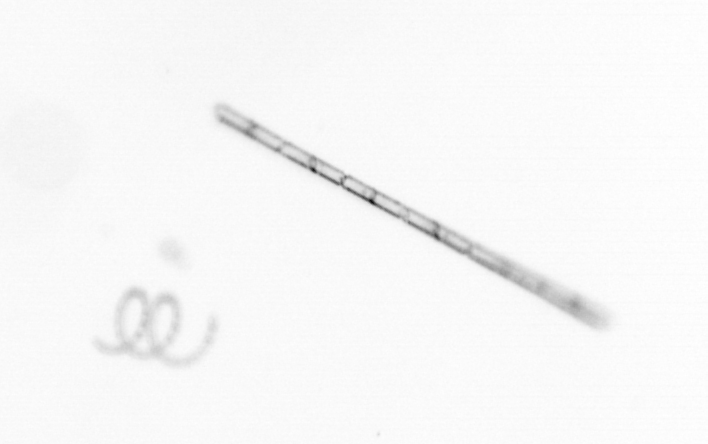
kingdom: Chromista
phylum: Ochrophyta
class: Bacillariophyceae
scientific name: Bacillariophyceae
